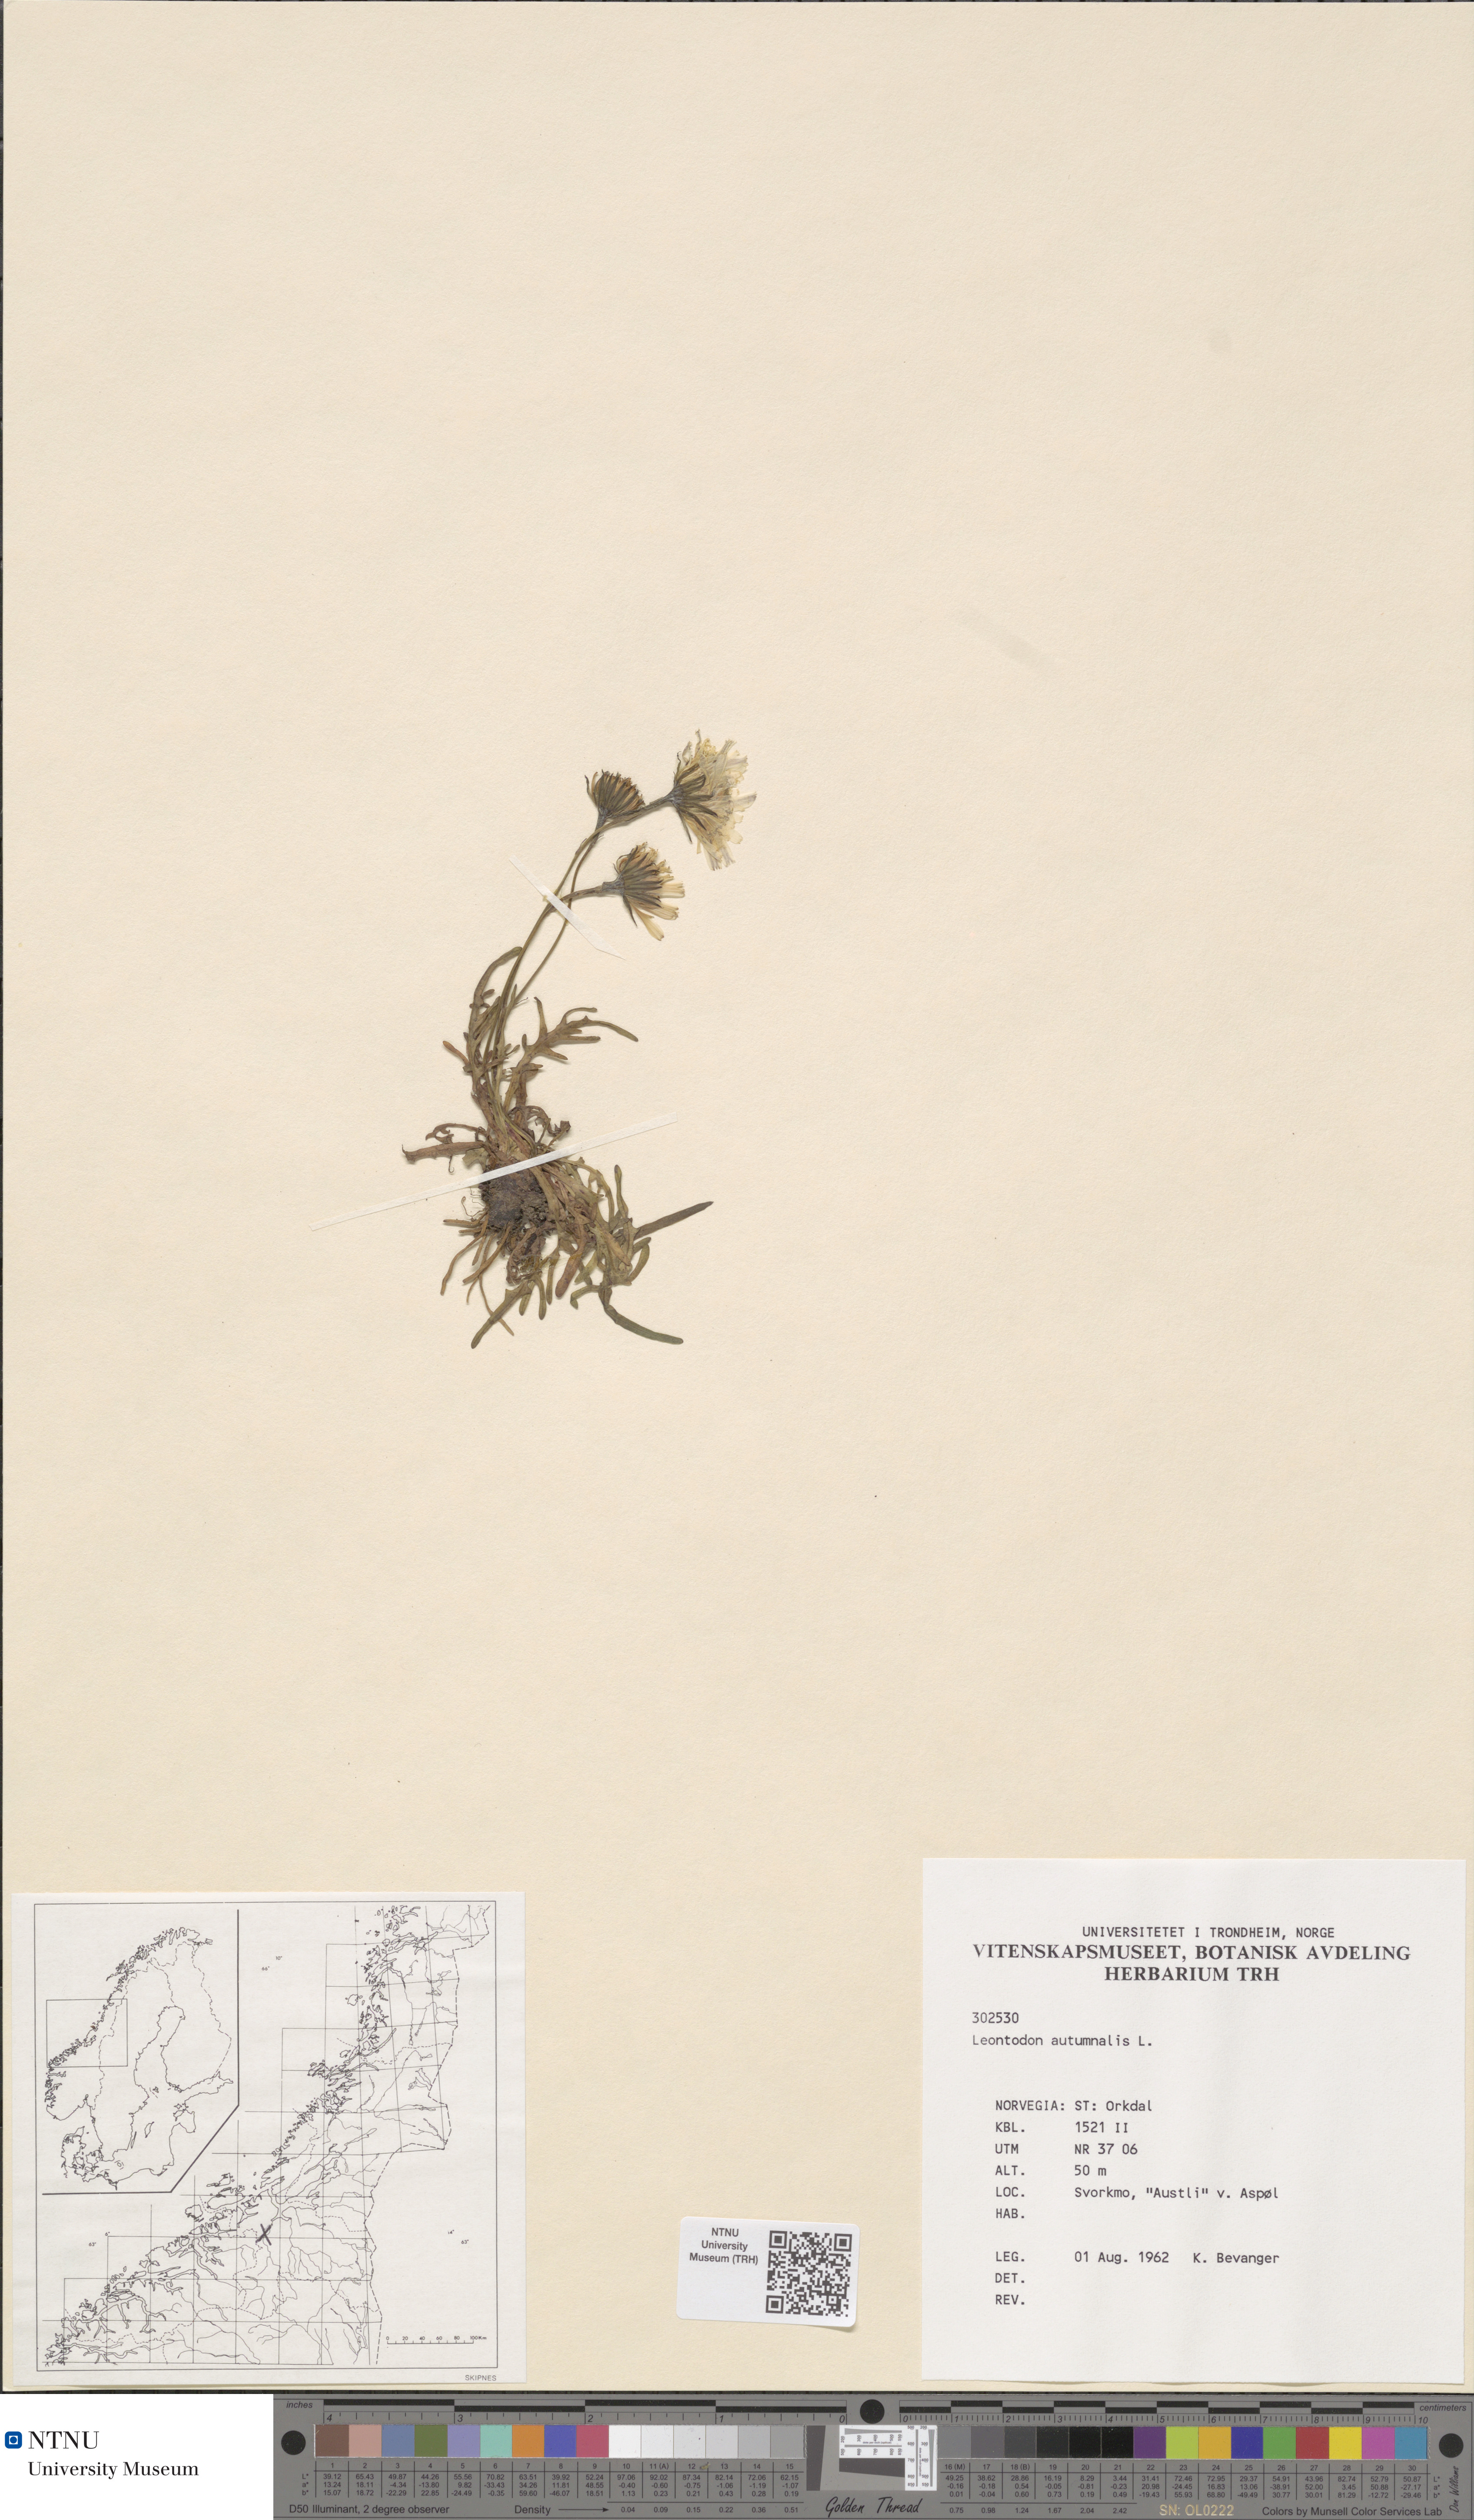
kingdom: Plantae
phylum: Tracheophyta
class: Magnoliopsida
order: Asterales
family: Asteraceae
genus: Scorzoneroides
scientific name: Scorzoneroides autumnalis
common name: Autumn hawkbit
